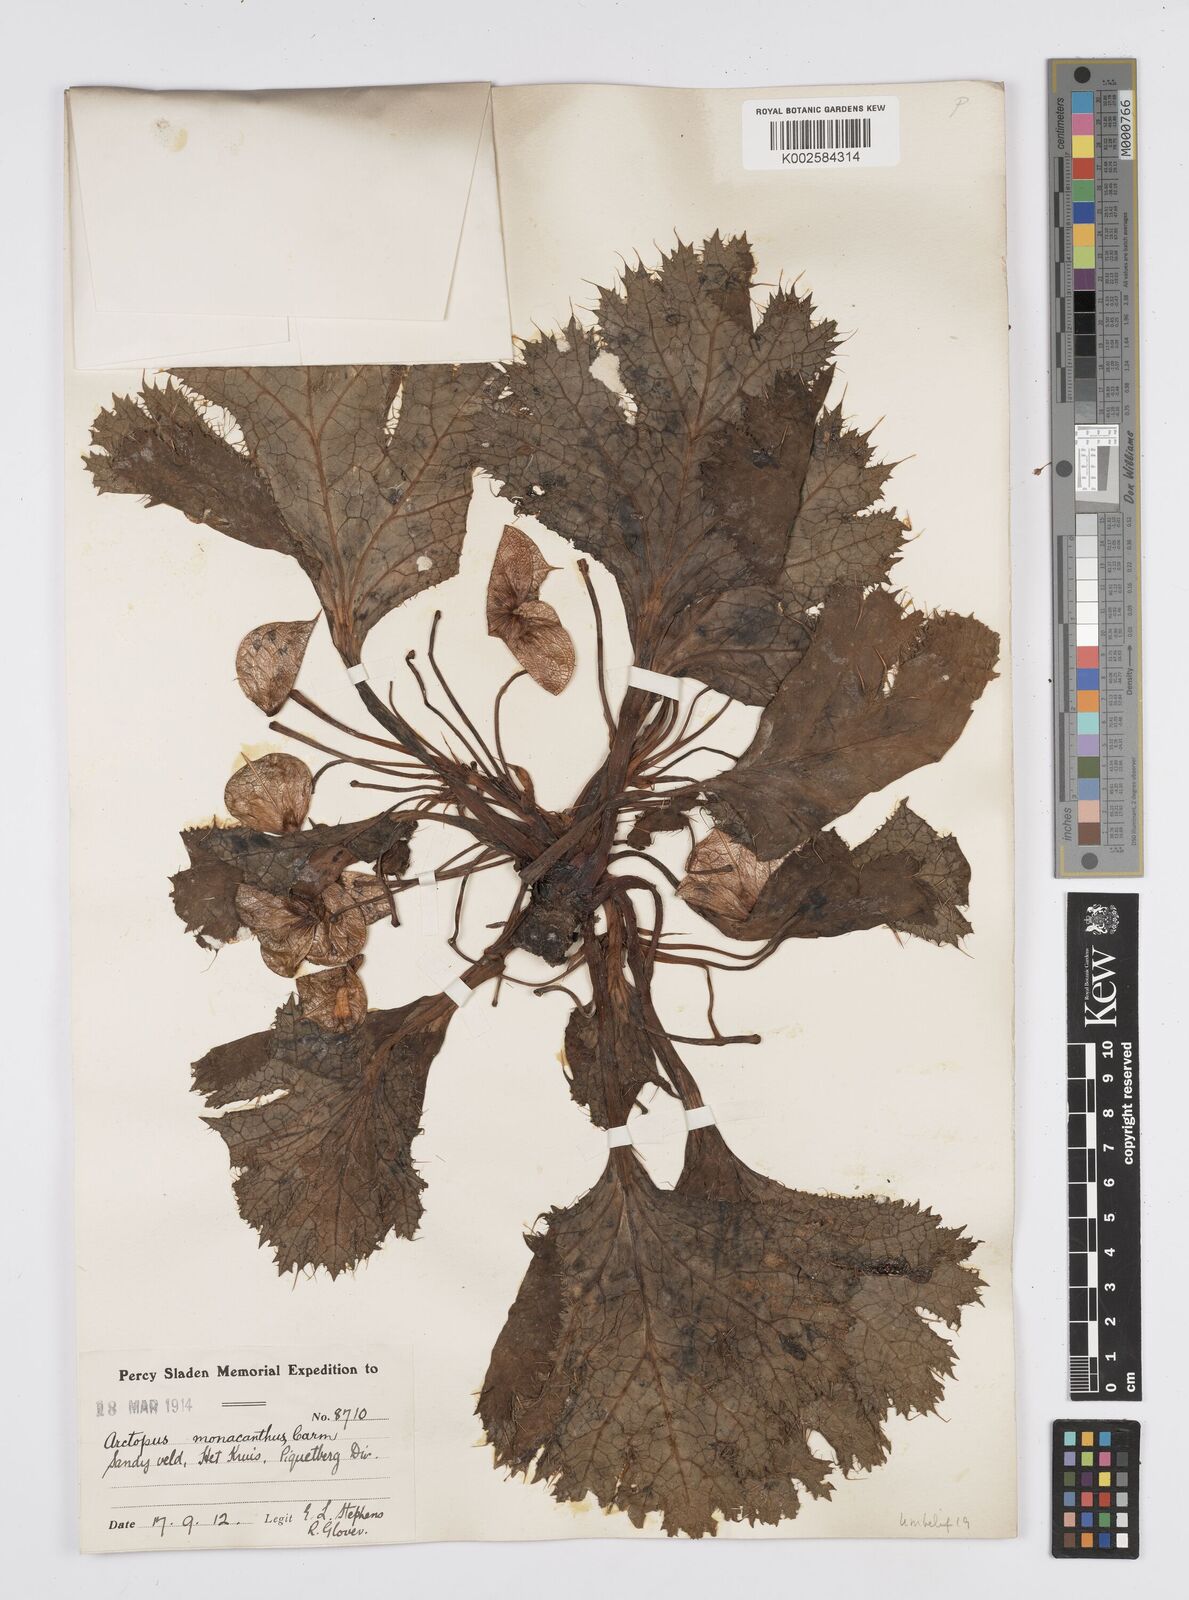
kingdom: Plantae
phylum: Tracheophyta
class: Magnoliopsida
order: Apiales
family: Apiaceae
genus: Arctopus
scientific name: Arctopus monacanthus
